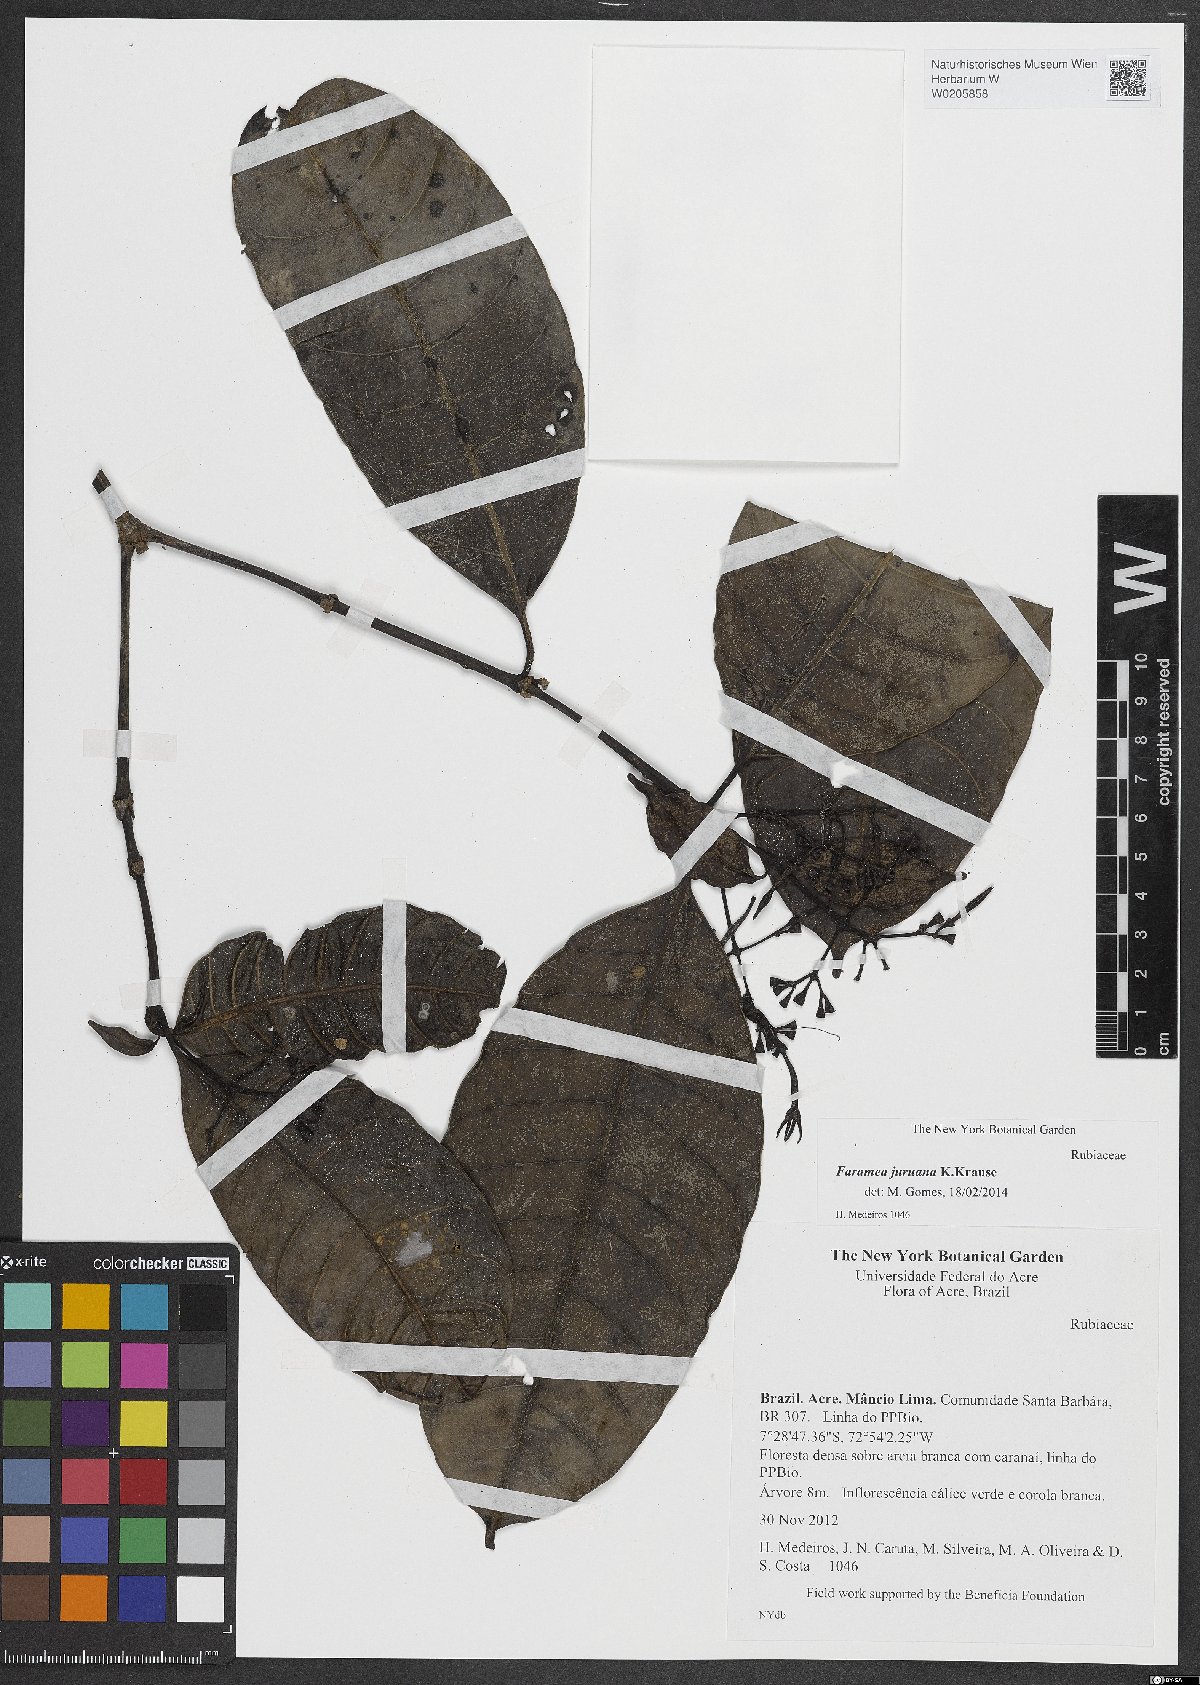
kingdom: Plantae
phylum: Tracheophyta
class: Magnoliopsida
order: Gentianales
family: Rubiaceae
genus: Faramea
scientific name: Faramea juruana
